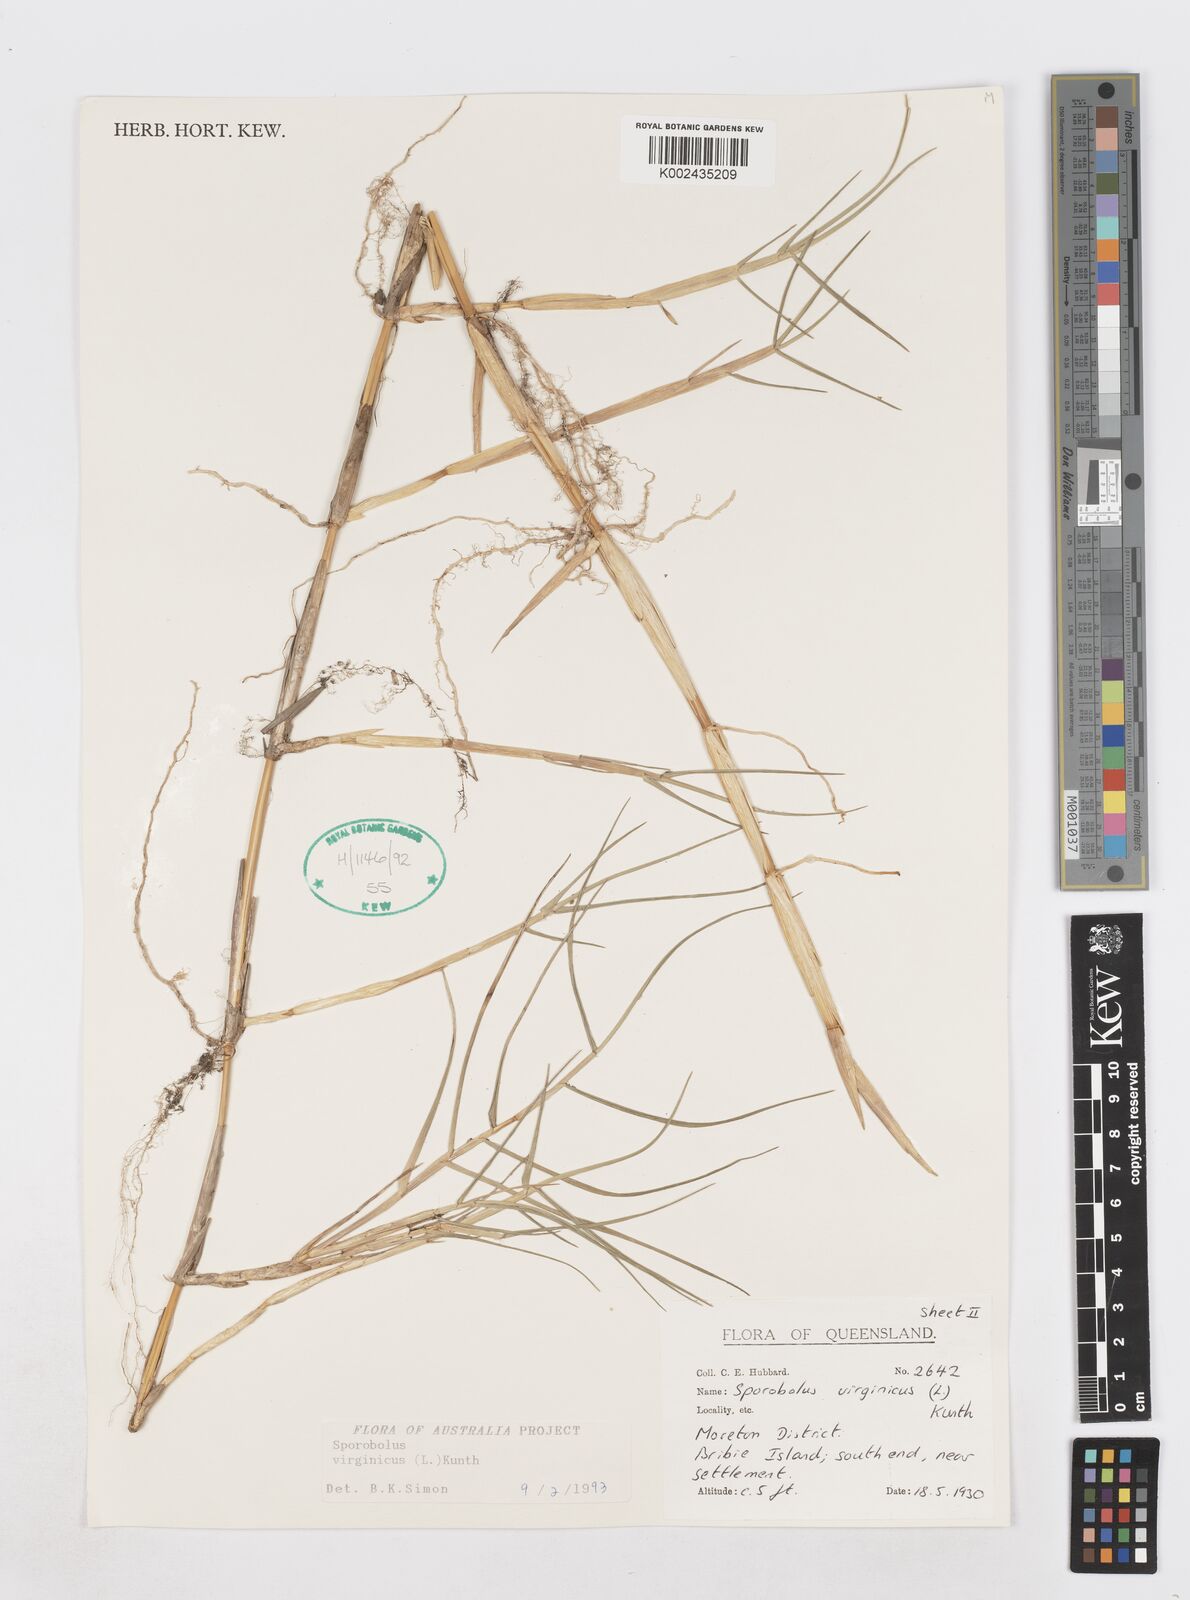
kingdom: Plantae
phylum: Tracheophyta
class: Liliopsida
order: Poales
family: Poaceae
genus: Sporobolus
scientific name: Sporobolus virginicus
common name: Beach dropseed
